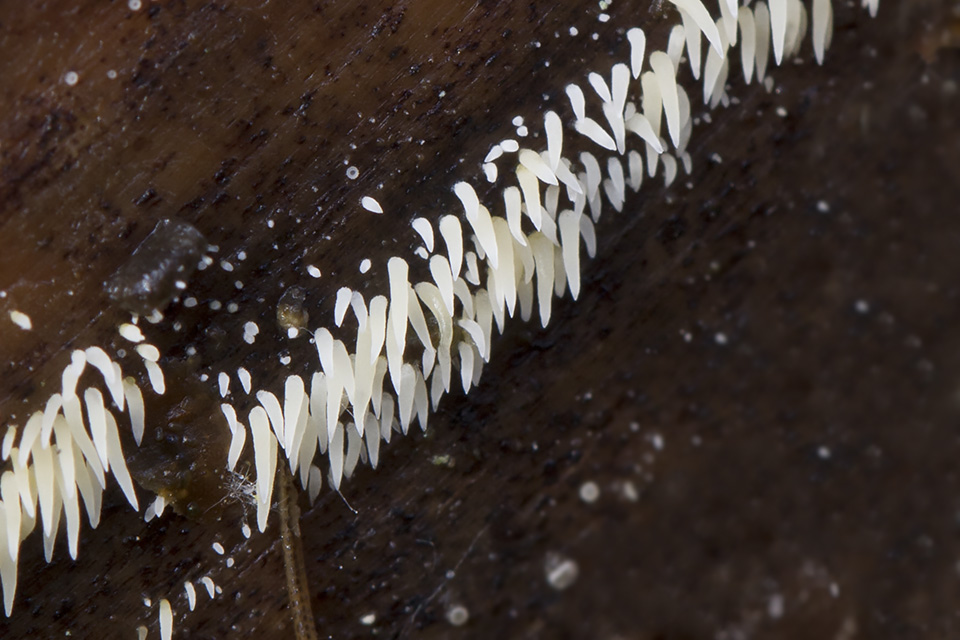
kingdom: Fungi
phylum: Basidiomycota
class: Agaricomycetes
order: Agaricales
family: Clavariaceae
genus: Mucronella
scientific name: Mucronella calva
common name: hvid hængepig
